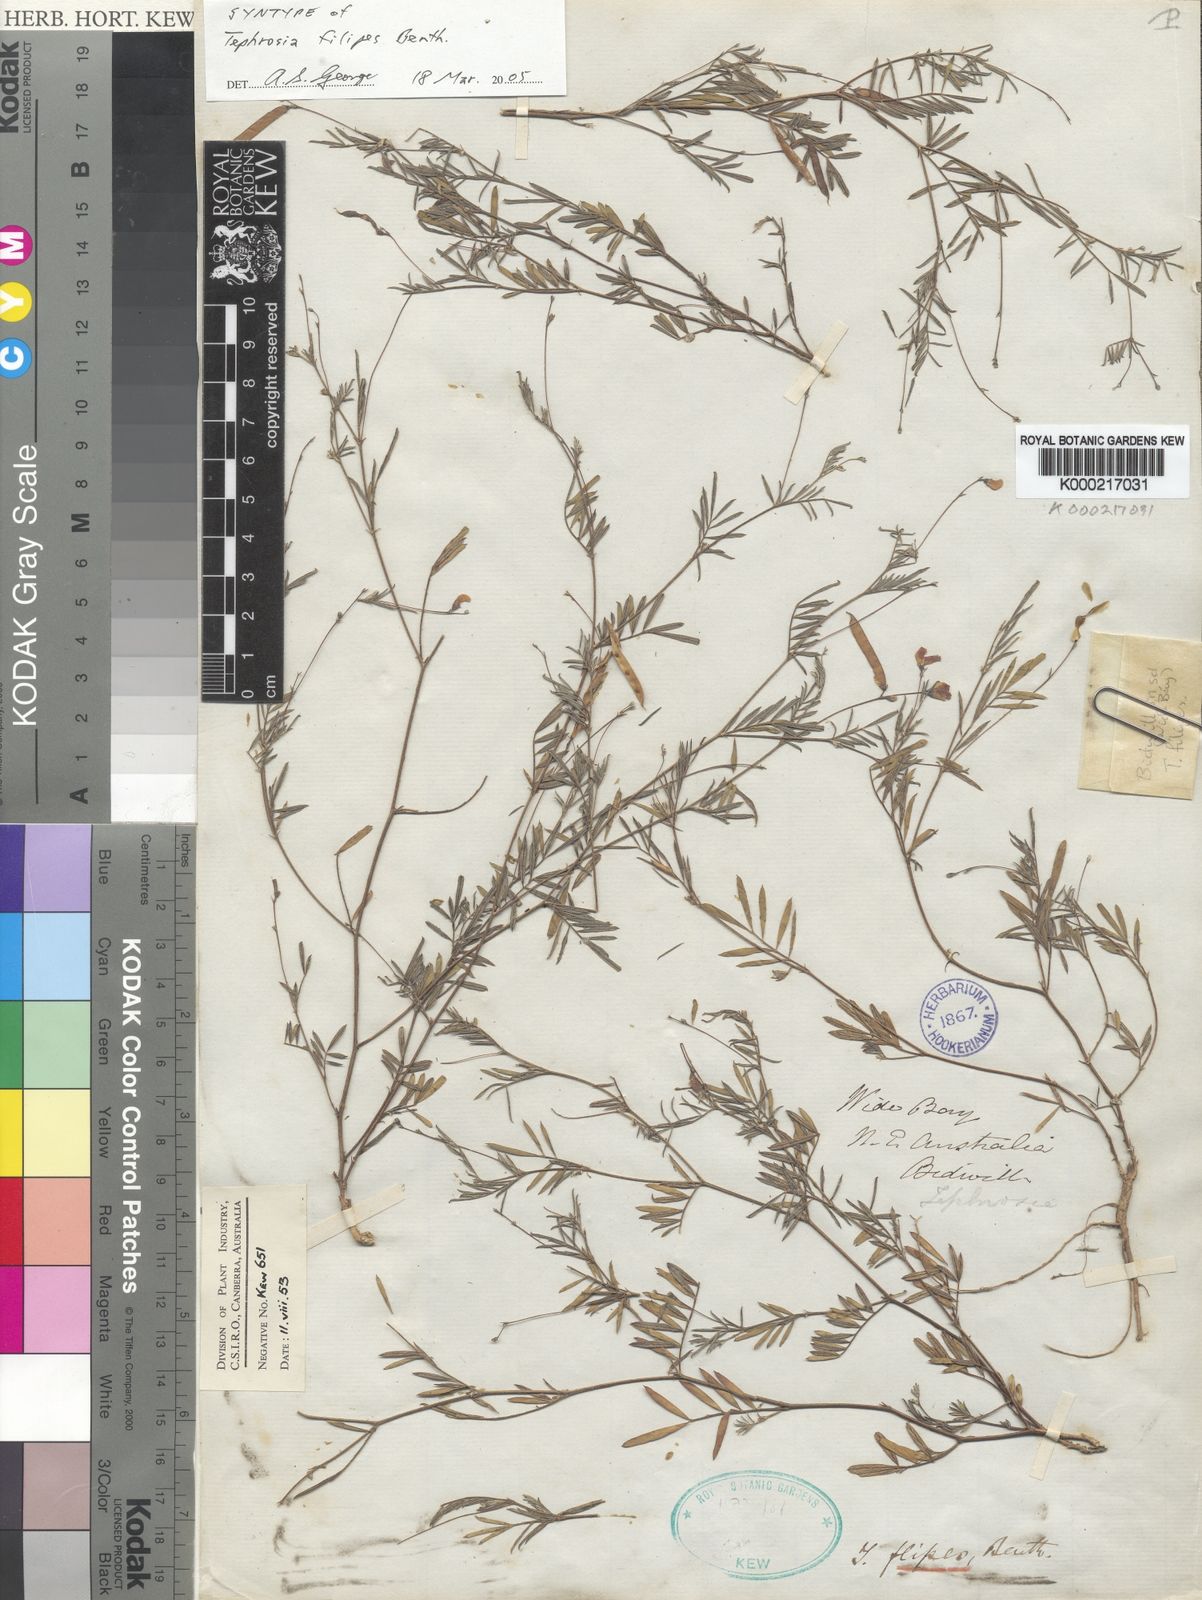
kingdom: Plantae
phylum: Tracheophyta
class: Magnoliopsida
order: Fabales
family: Fabaceae
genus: Tephrosia
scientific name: Tephrosia filipes
